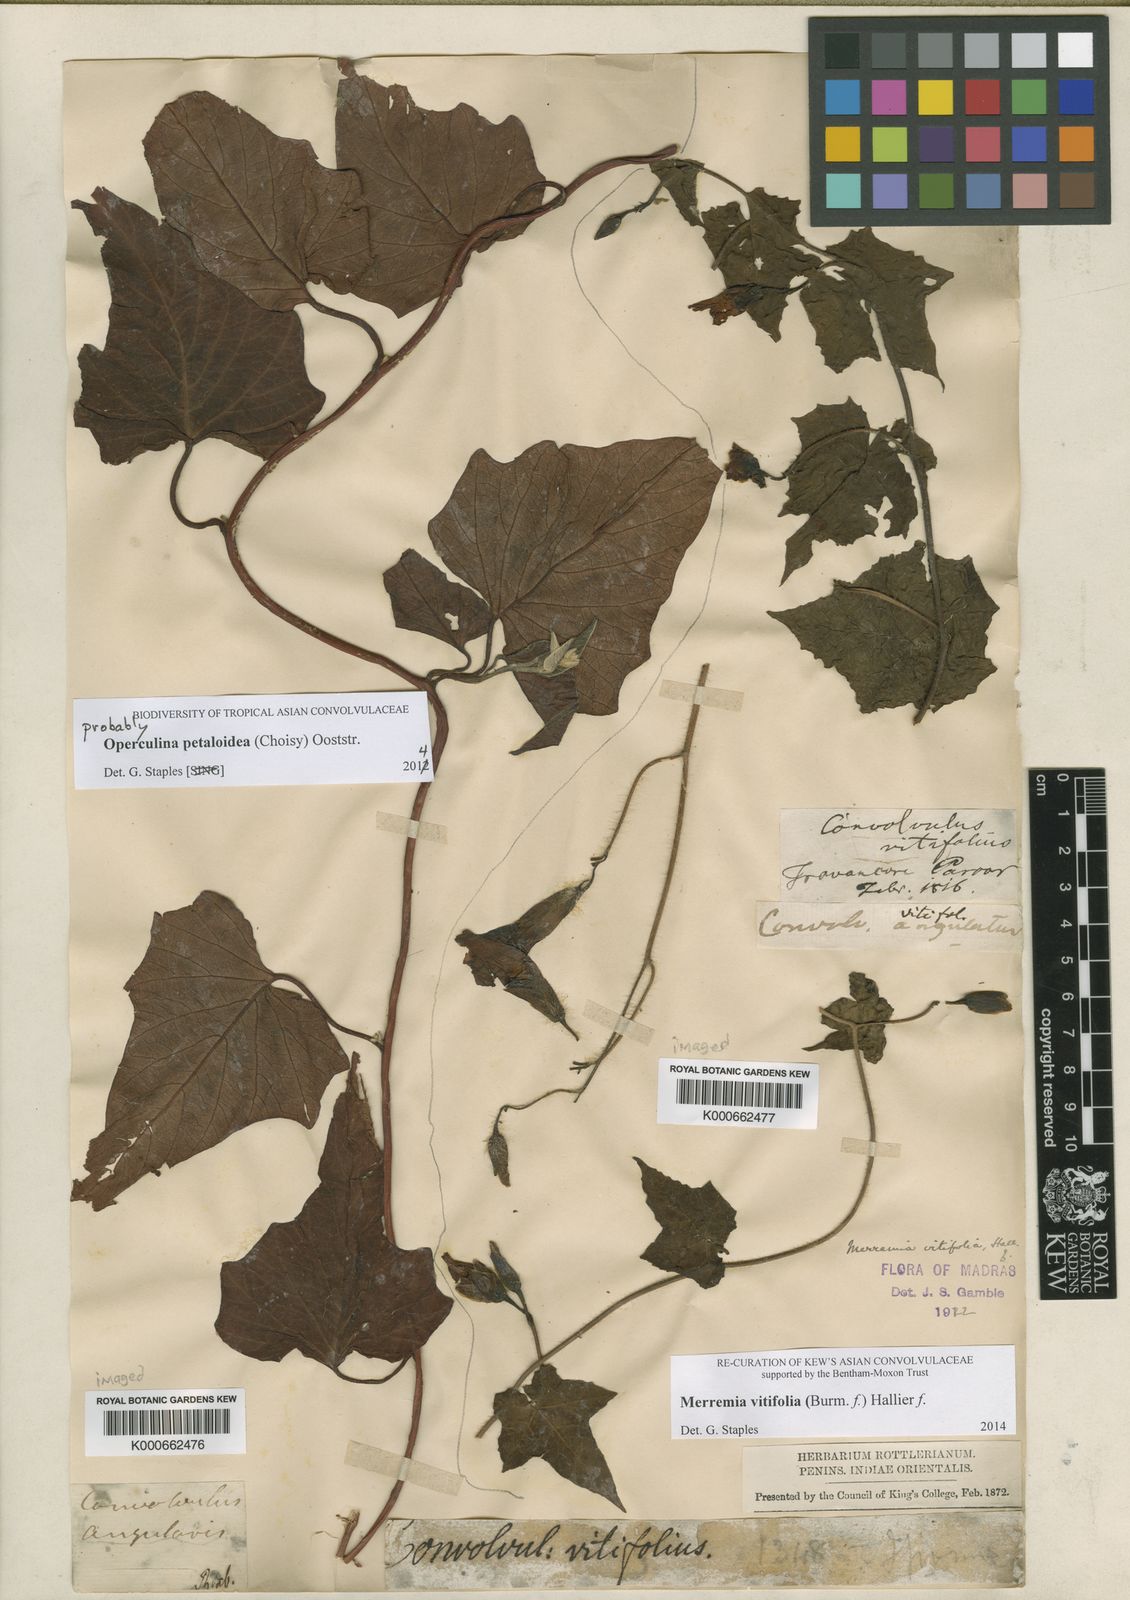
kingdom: Plantae
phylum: Tracheophyta
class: Magnoliopsida
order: Solanales
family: Convolvulaceae
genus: Operculina
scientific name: Operculina petaloidea
